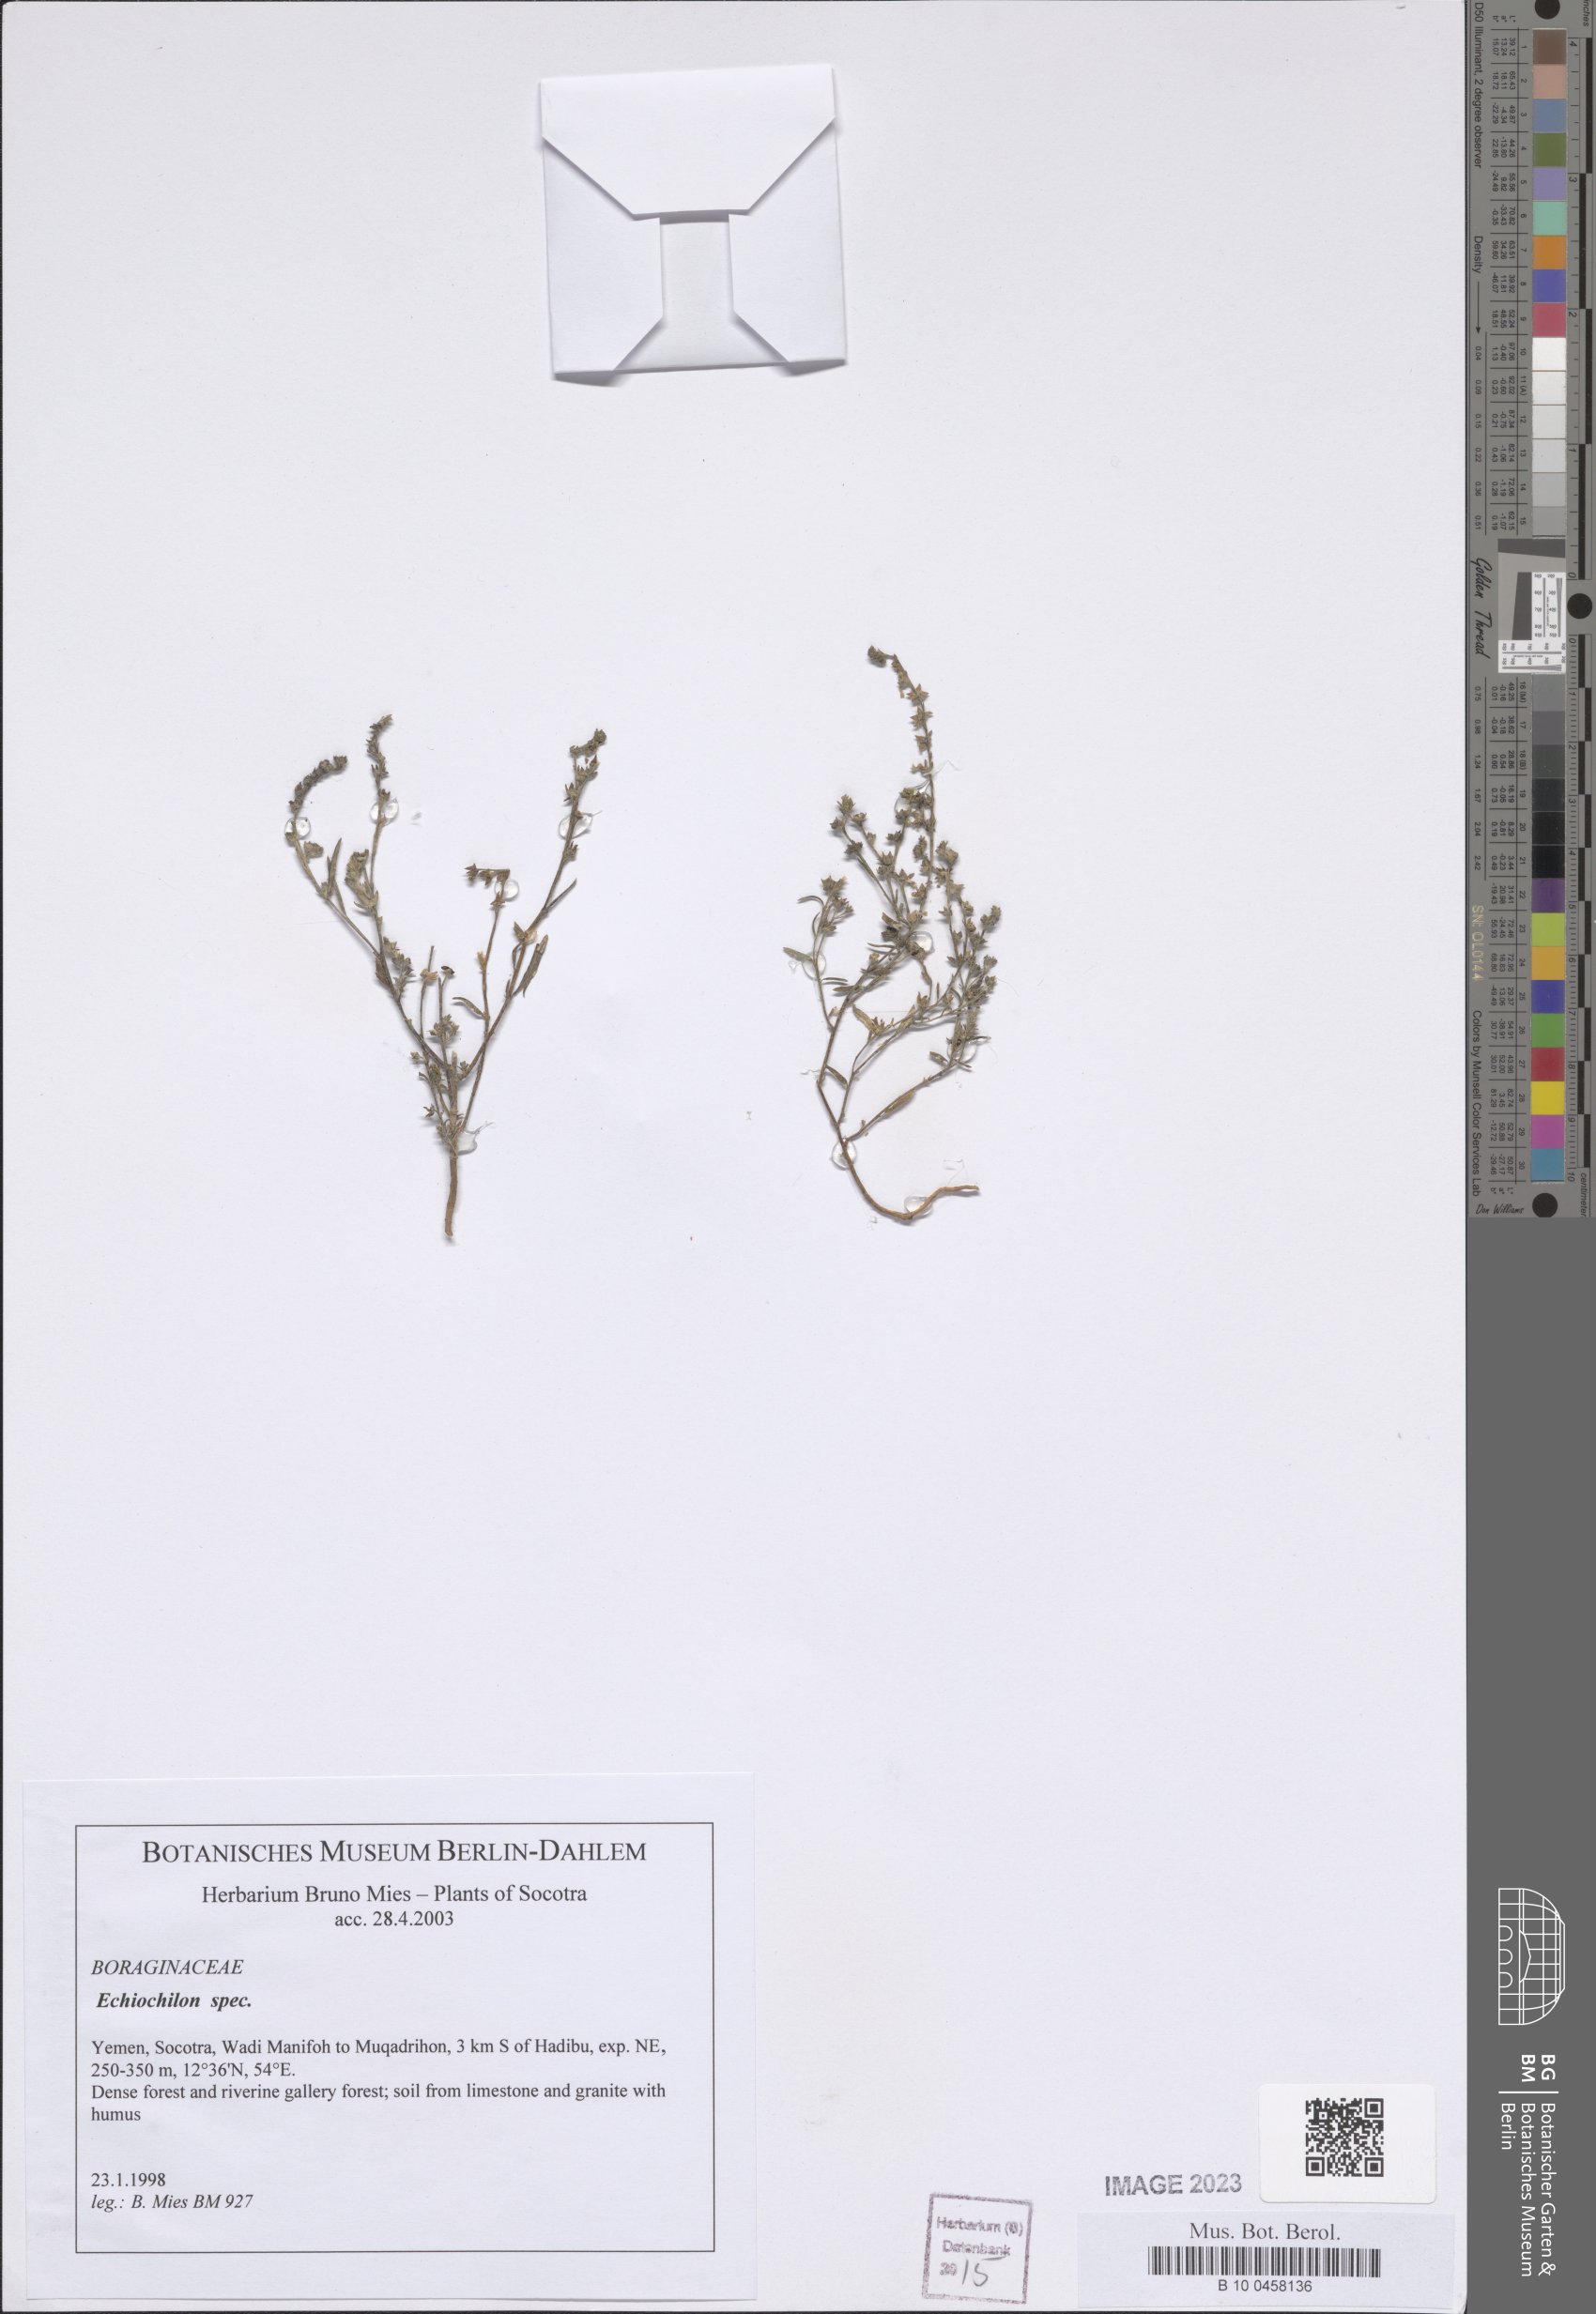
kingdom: Plantae
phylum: Tracheophyta
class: Magnoliopsida
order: Boraginales
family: Boraginaceae
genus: Echiochilon
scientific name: Echiochilon
